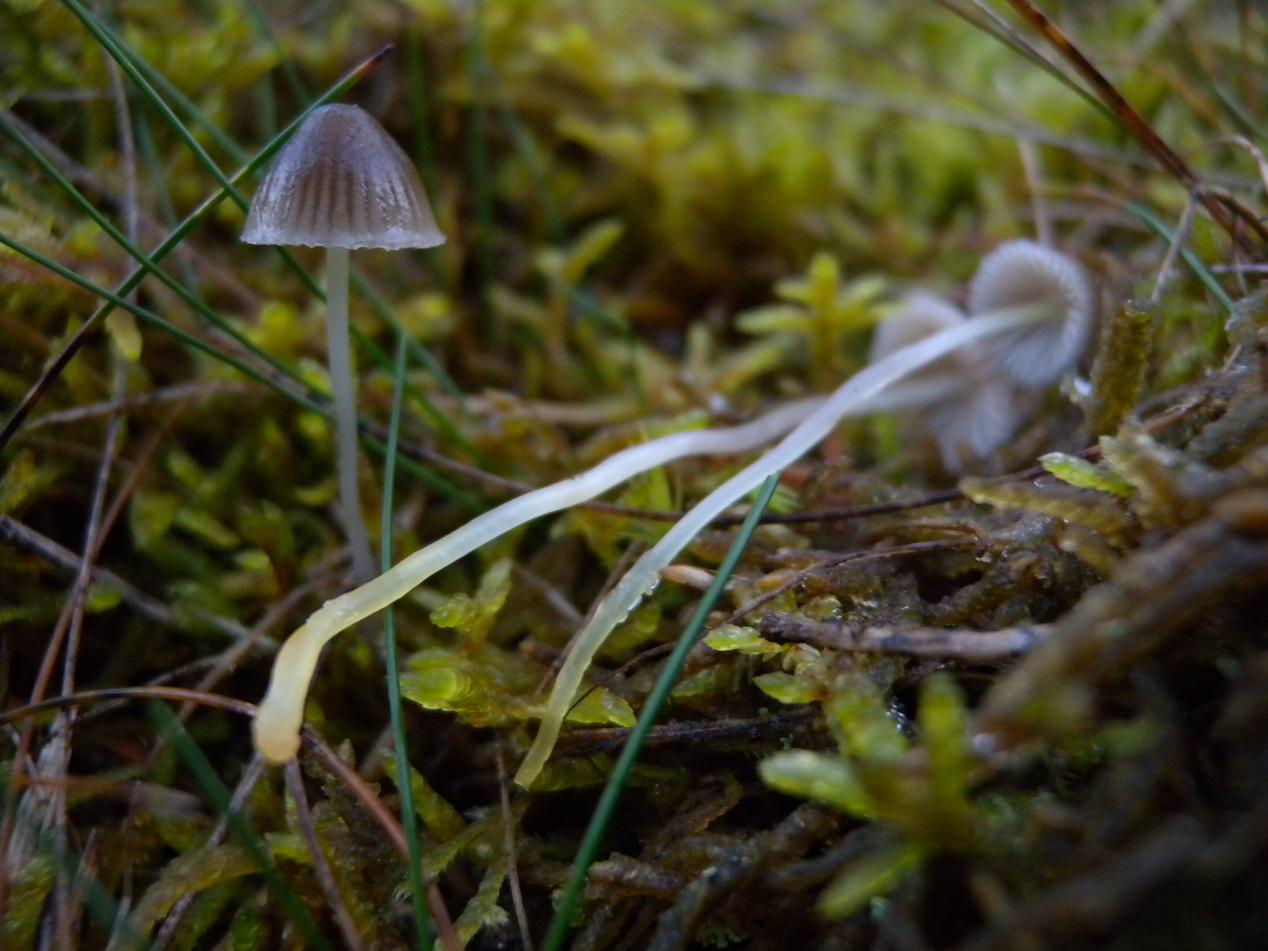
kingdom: Fungi
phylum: Basidiomycota
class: Agaricomycetes
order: Agaricales
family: Mycenaceae
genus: Mycena
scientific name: Mycena epipterygia
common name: gulstokket huesvamp
